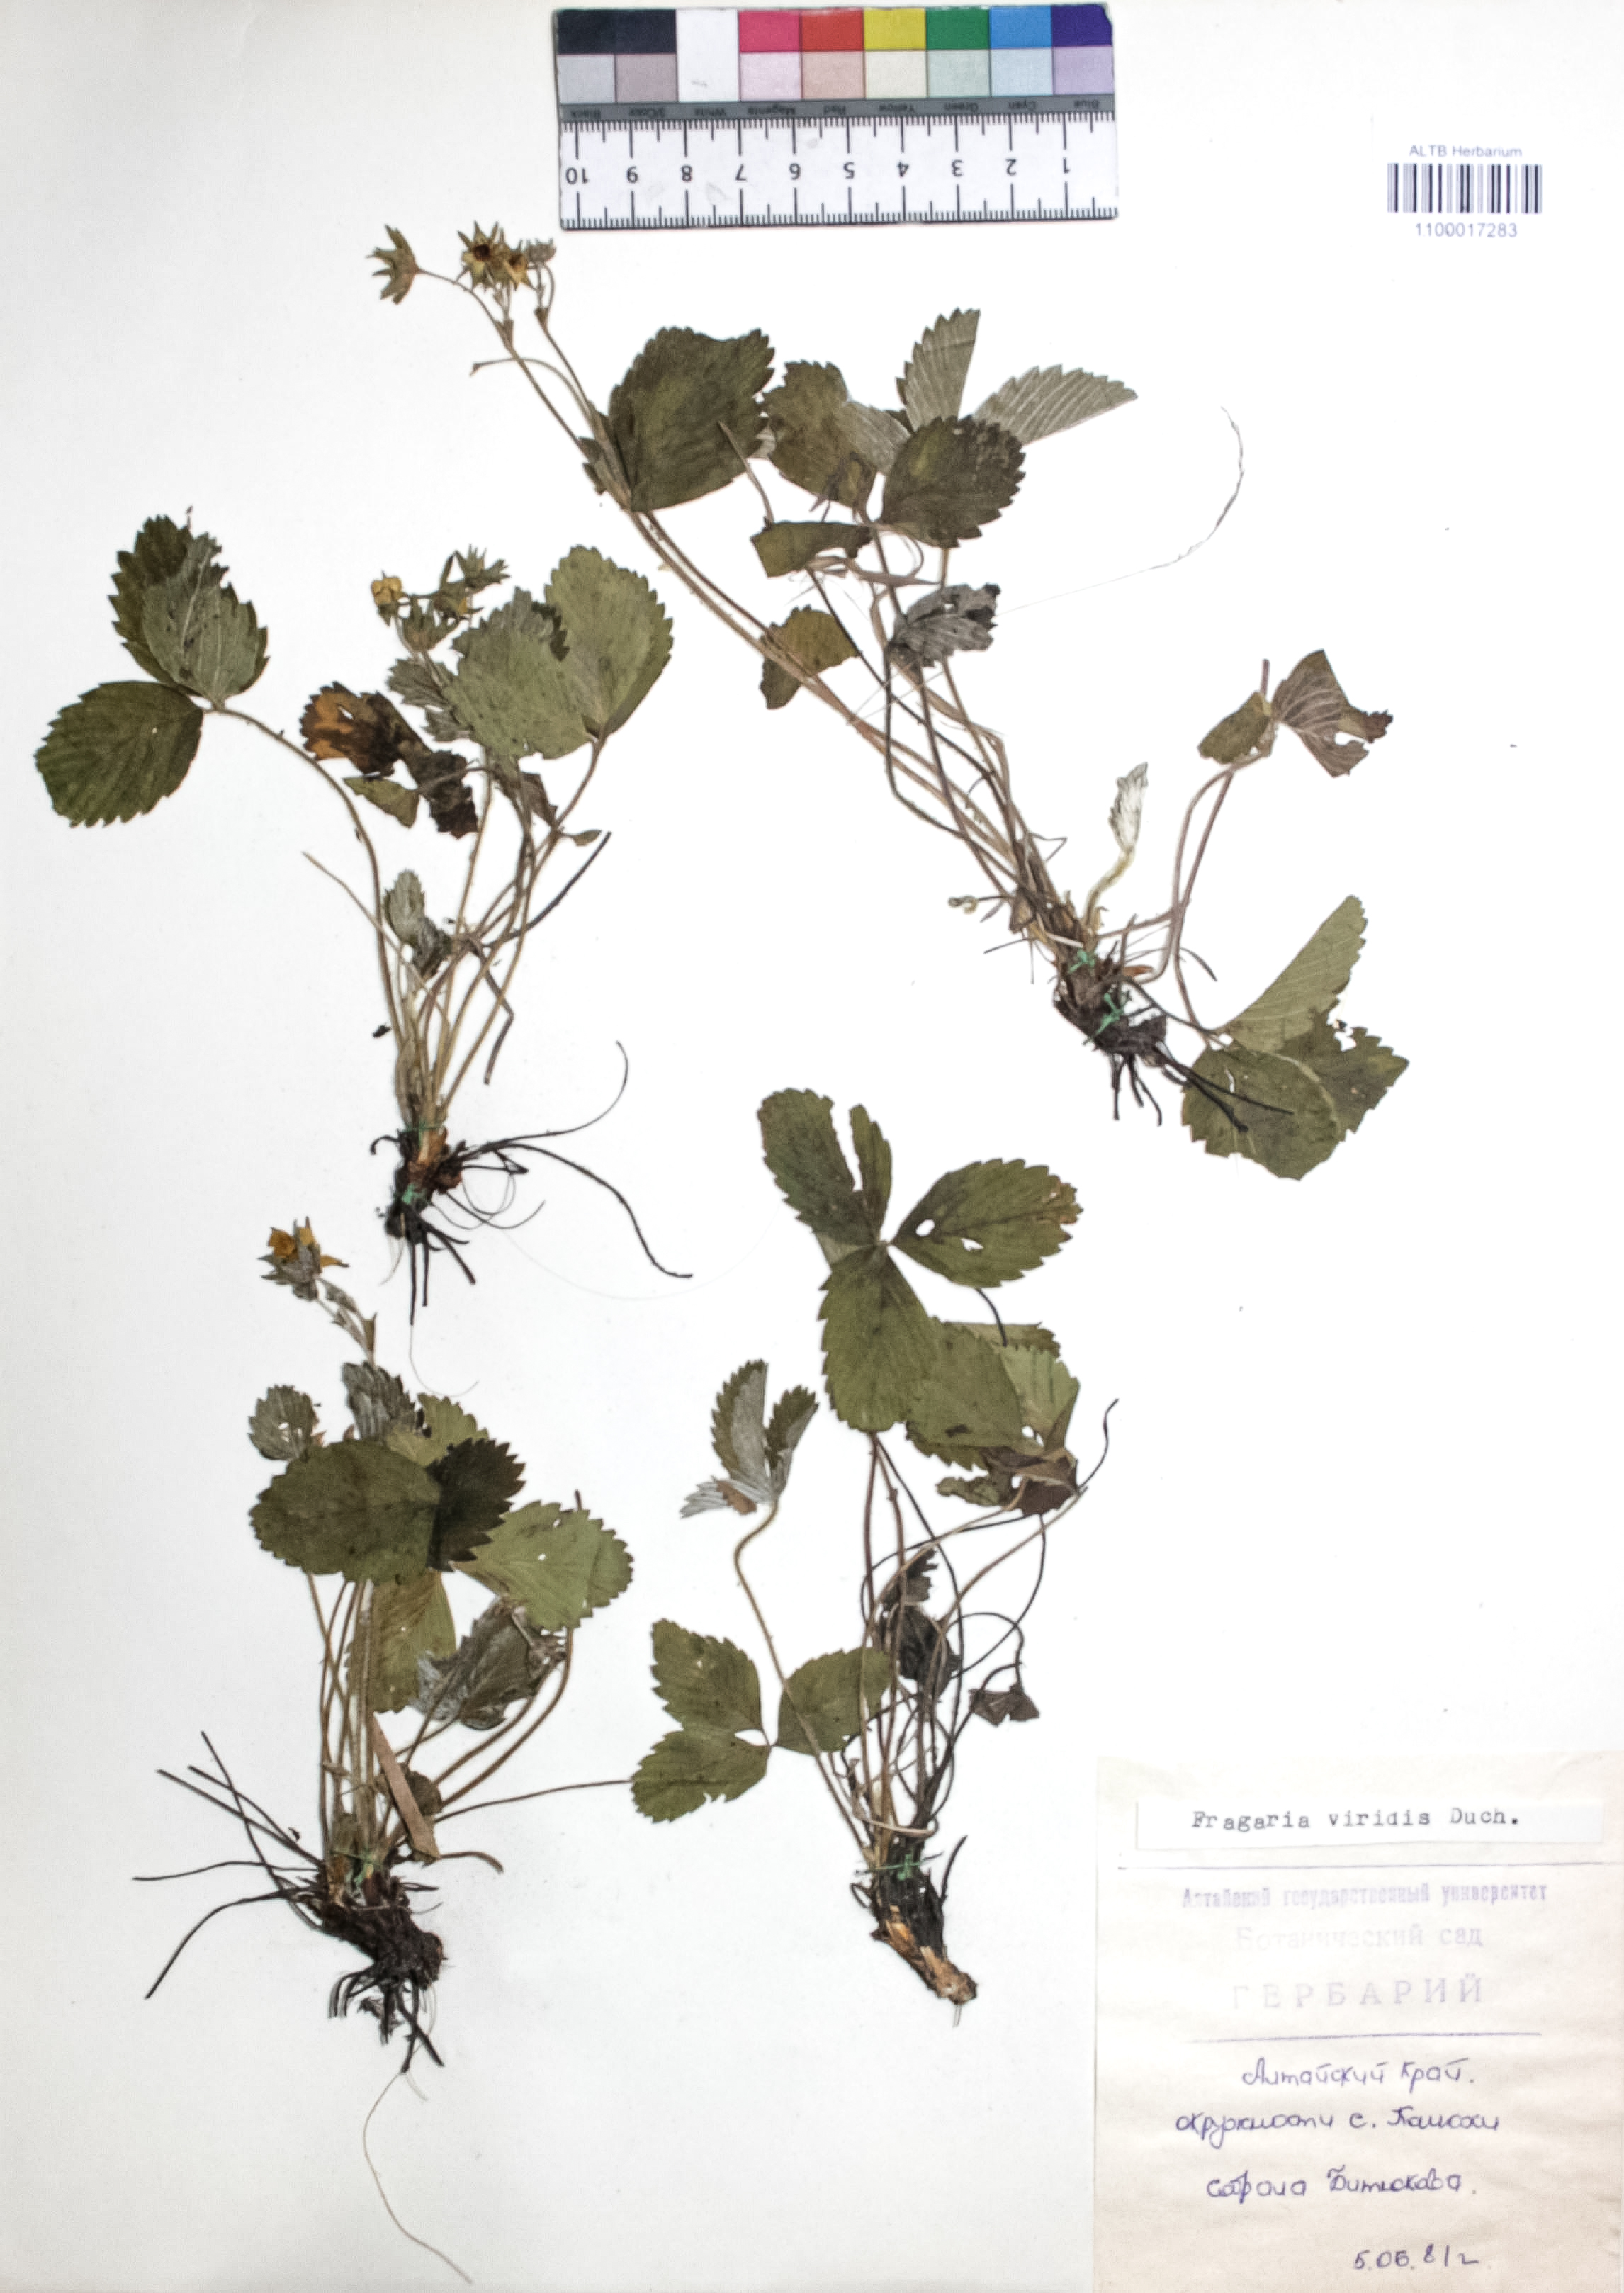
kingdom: Plantae
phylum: Tracheophyta
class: Magnoliopsida
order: Rosales
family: Rosaceae
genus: Fragaria
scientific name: Fragaria viridis
